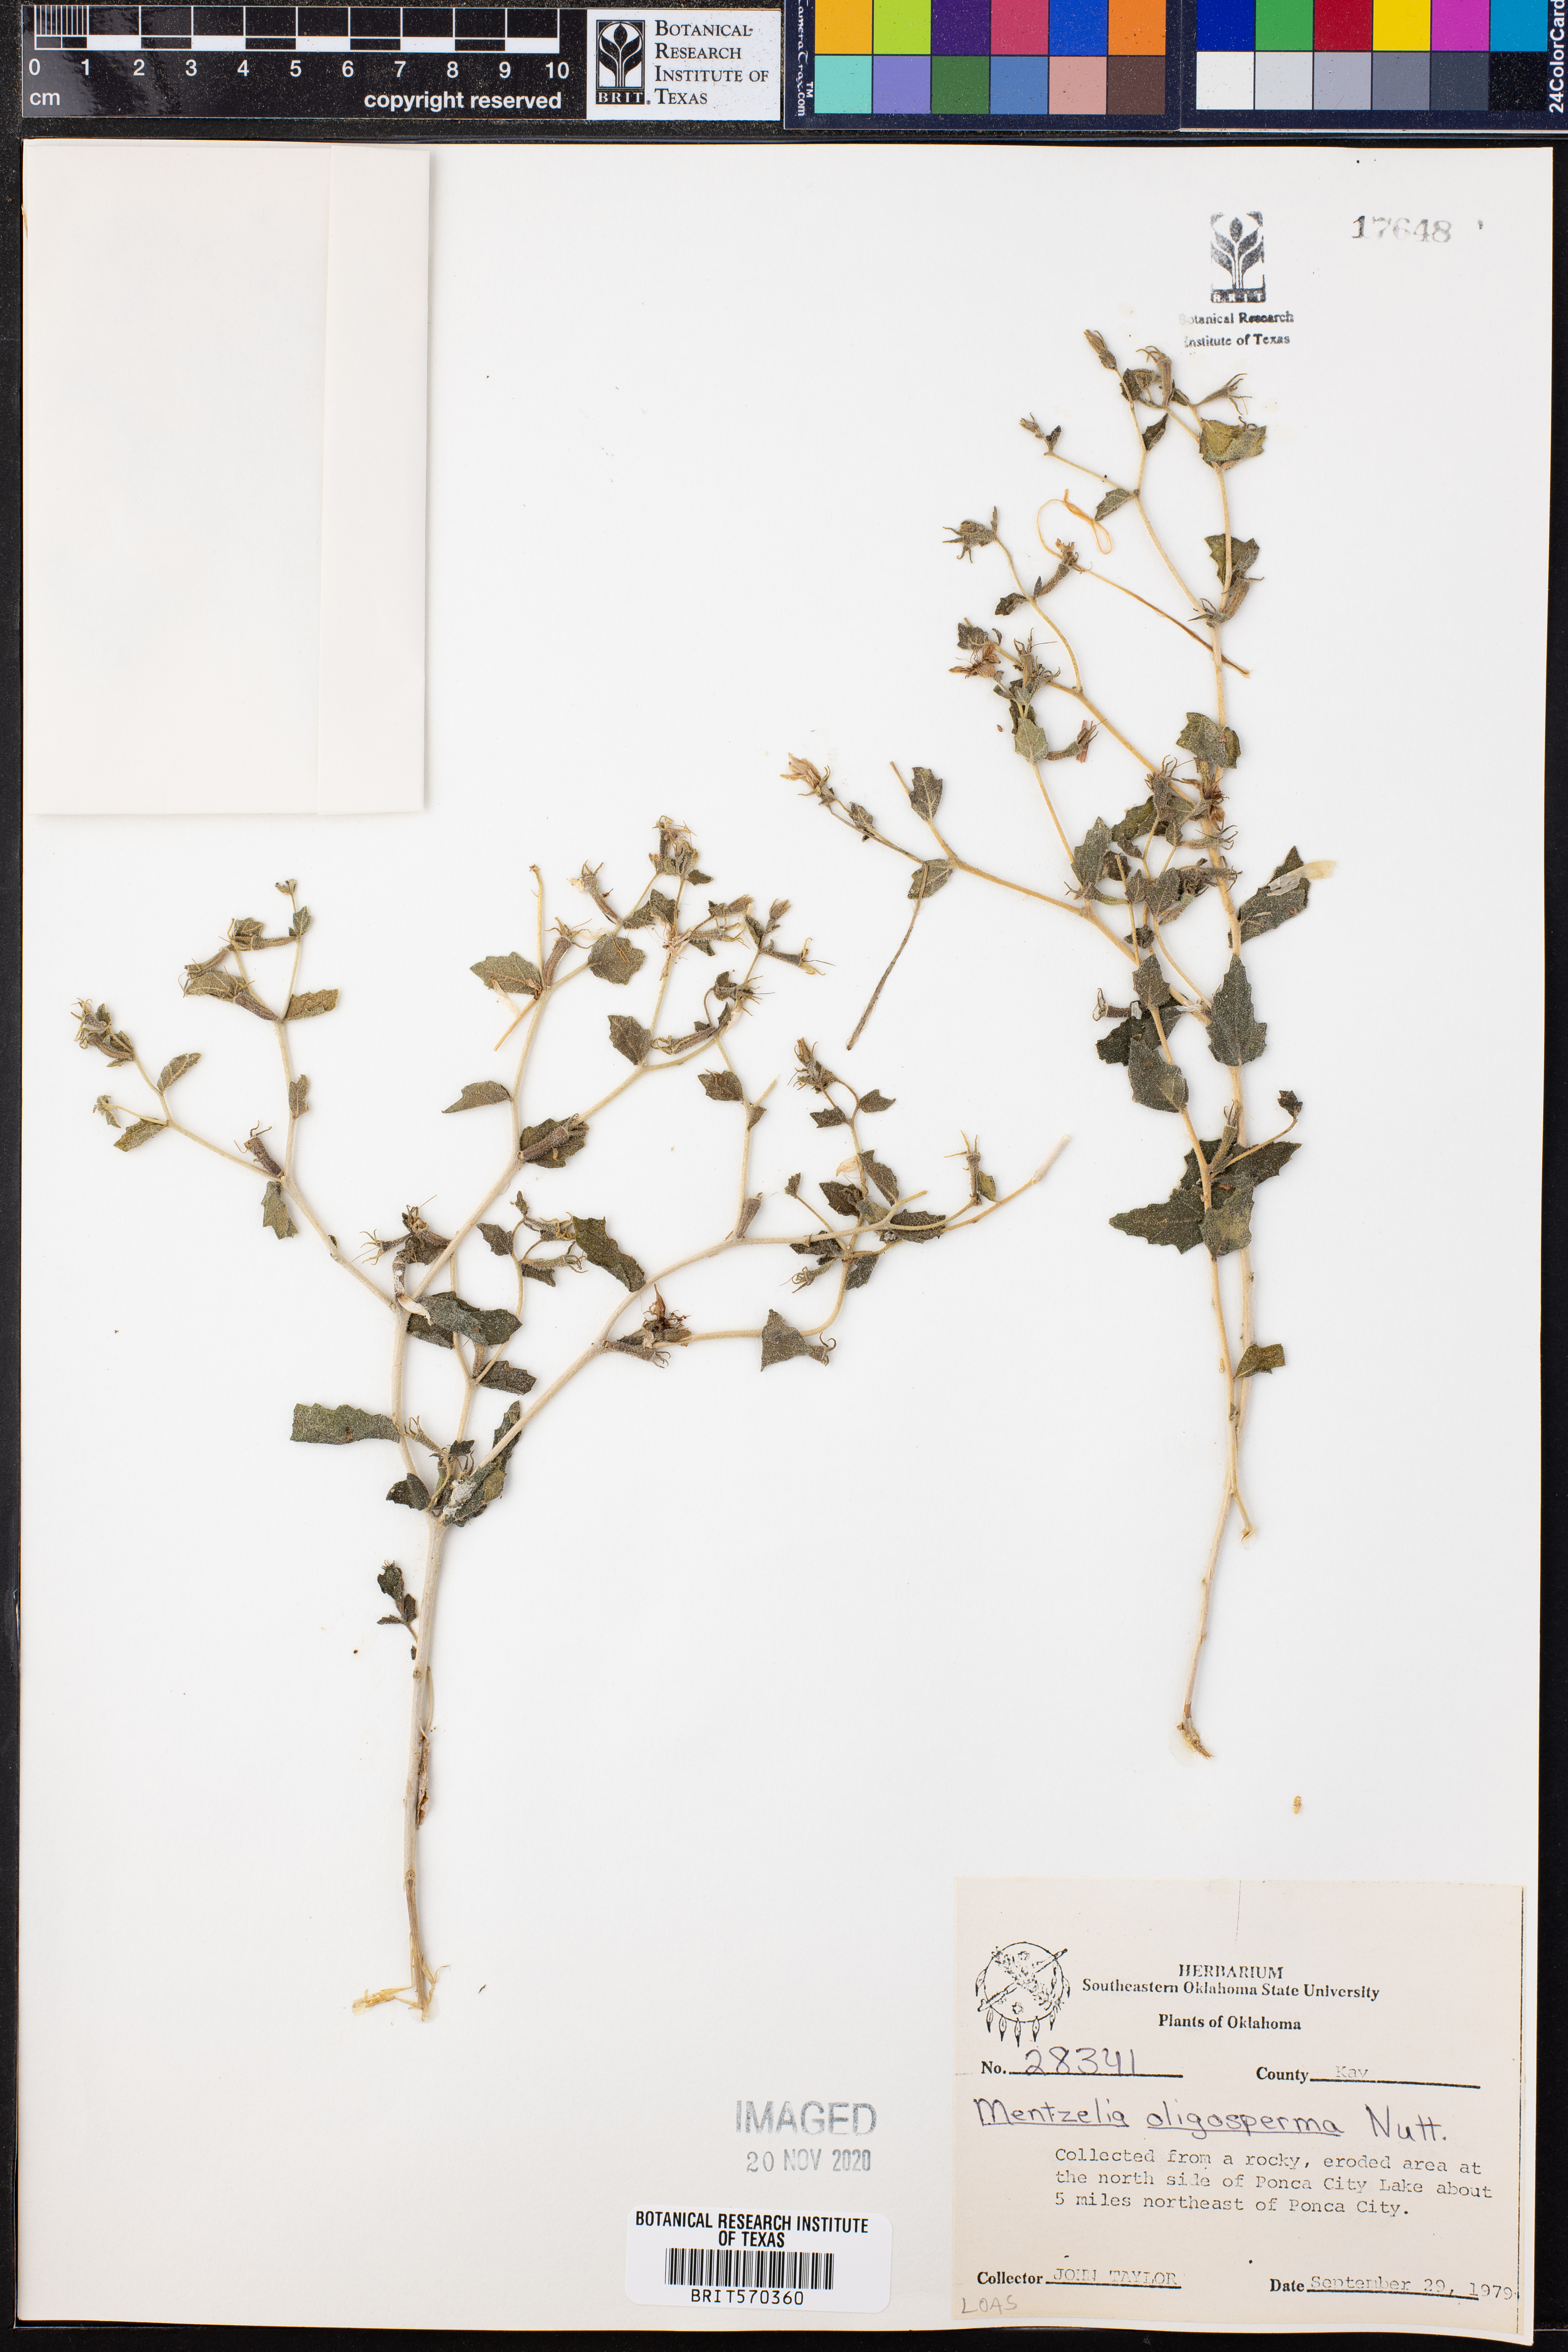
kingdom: Plantae
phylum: Tracheophyta
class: Magnoliopsida
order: Cornales
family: Loasaceae
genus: Mentzelia
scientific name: Mentzelia oligosperma
